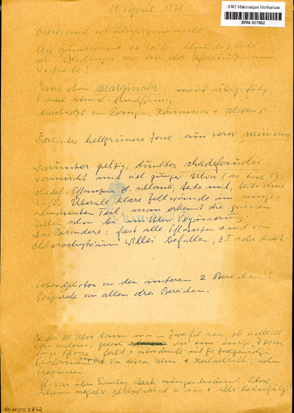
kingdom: Plantae
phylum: Chlorophyta
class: Ulvophyceae
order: Ulvales
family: Ulvaceae
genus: Ulva
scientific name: Ulva tenera
